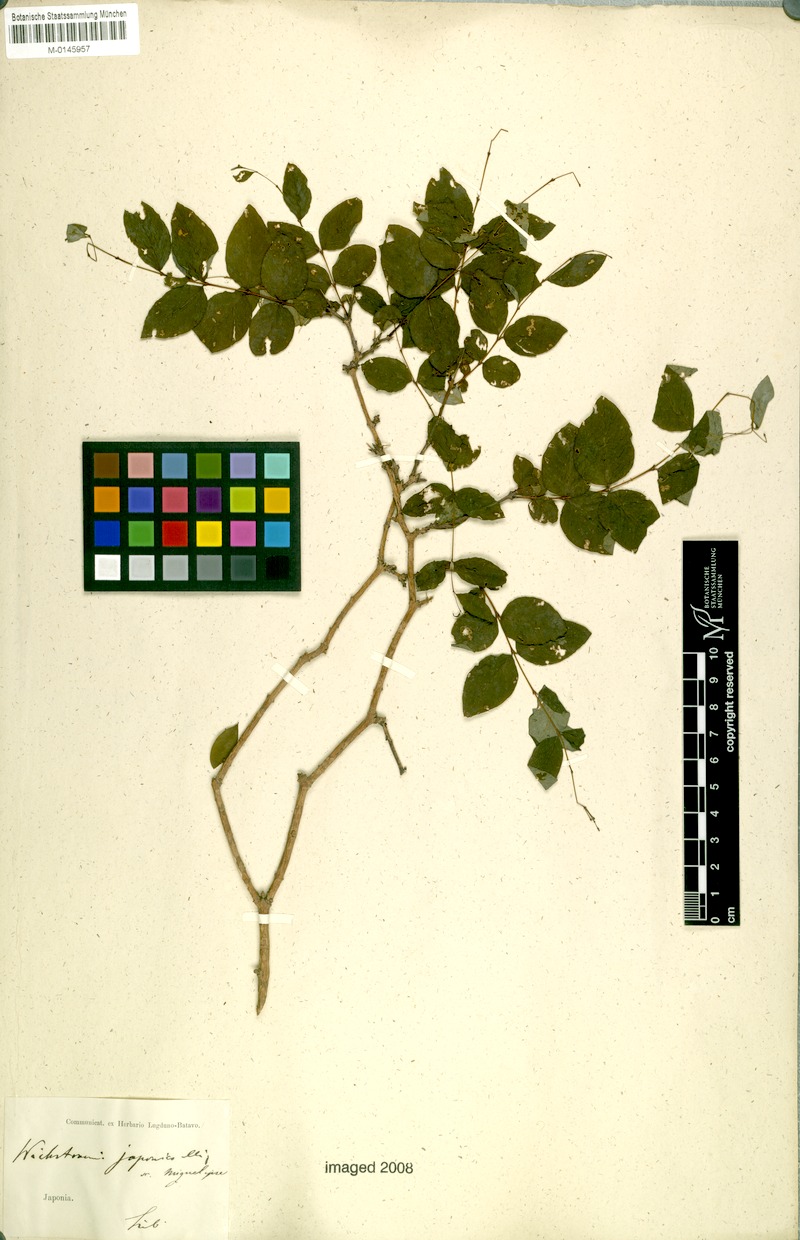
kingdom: Plantae
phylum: Tracheophyta
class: Magnoliopsida
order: Malvales
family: Thymelaeaceae
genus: Wikstroemia
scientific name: Wikstroemia trichotoma
